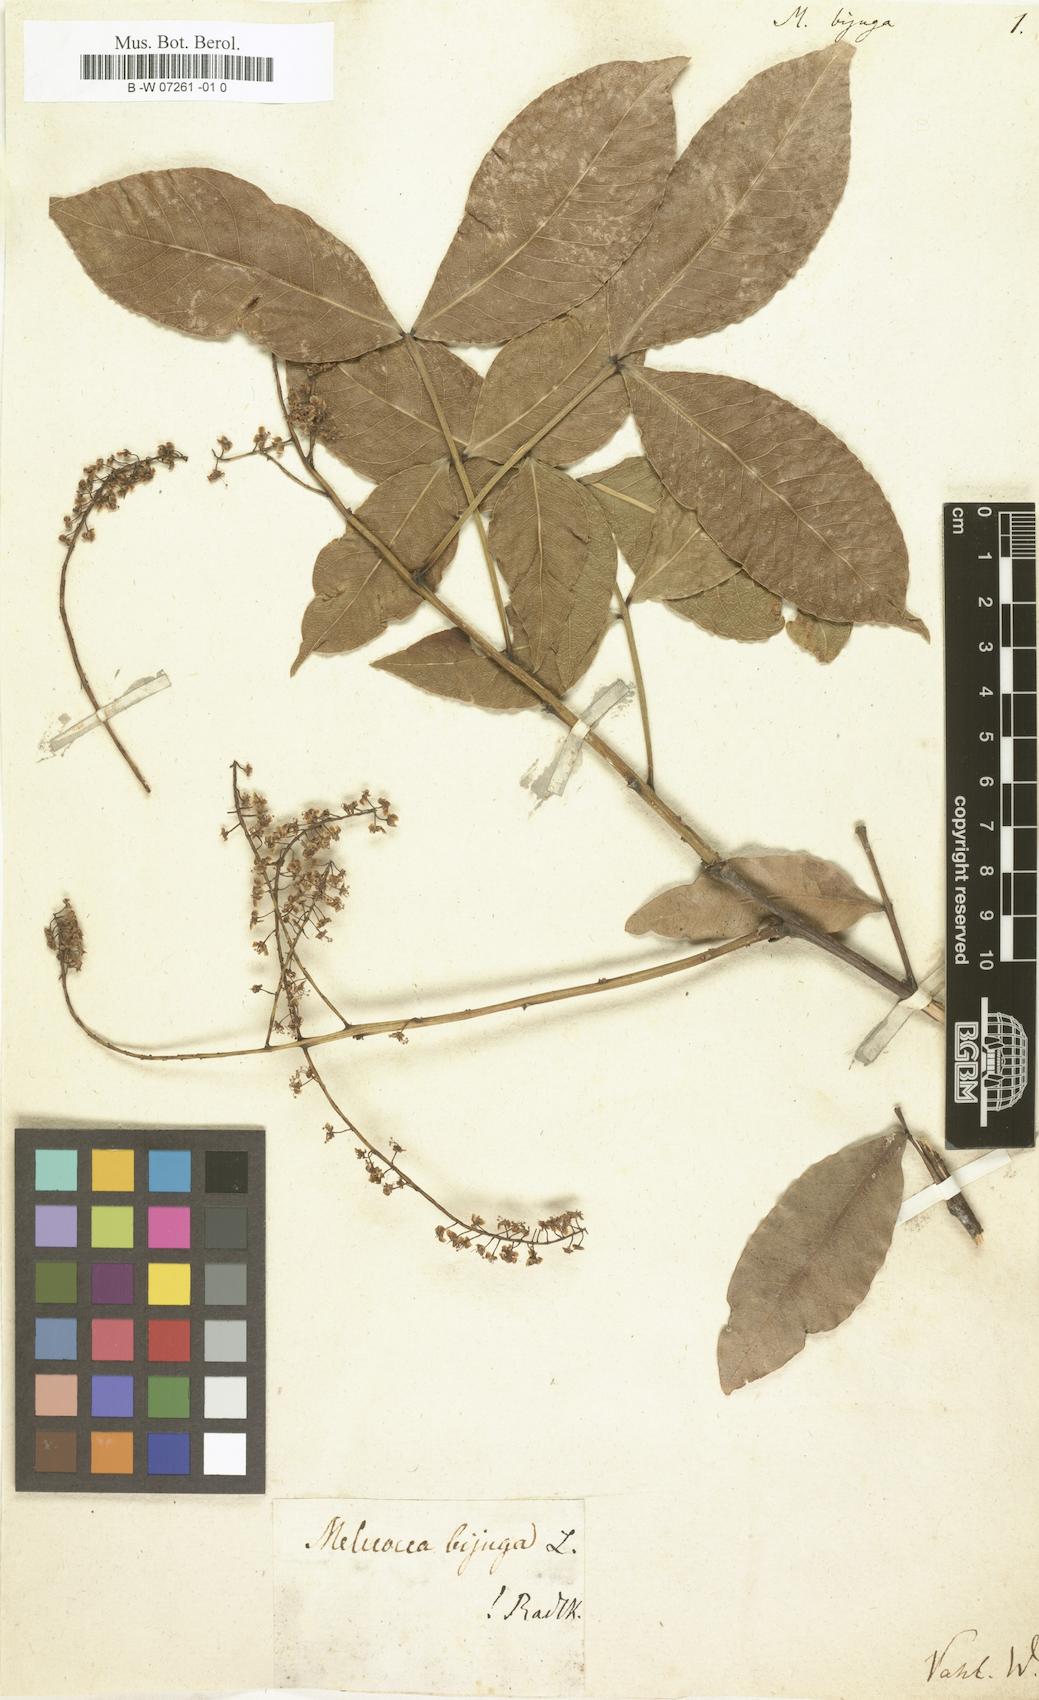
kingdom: Plantae
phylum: Tracheophyta
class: Magnoliopsida
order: Sapindales
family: Sapindaceae
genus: Melicoccus
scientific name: Melicoccus bijugatus
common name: Spanish lime
